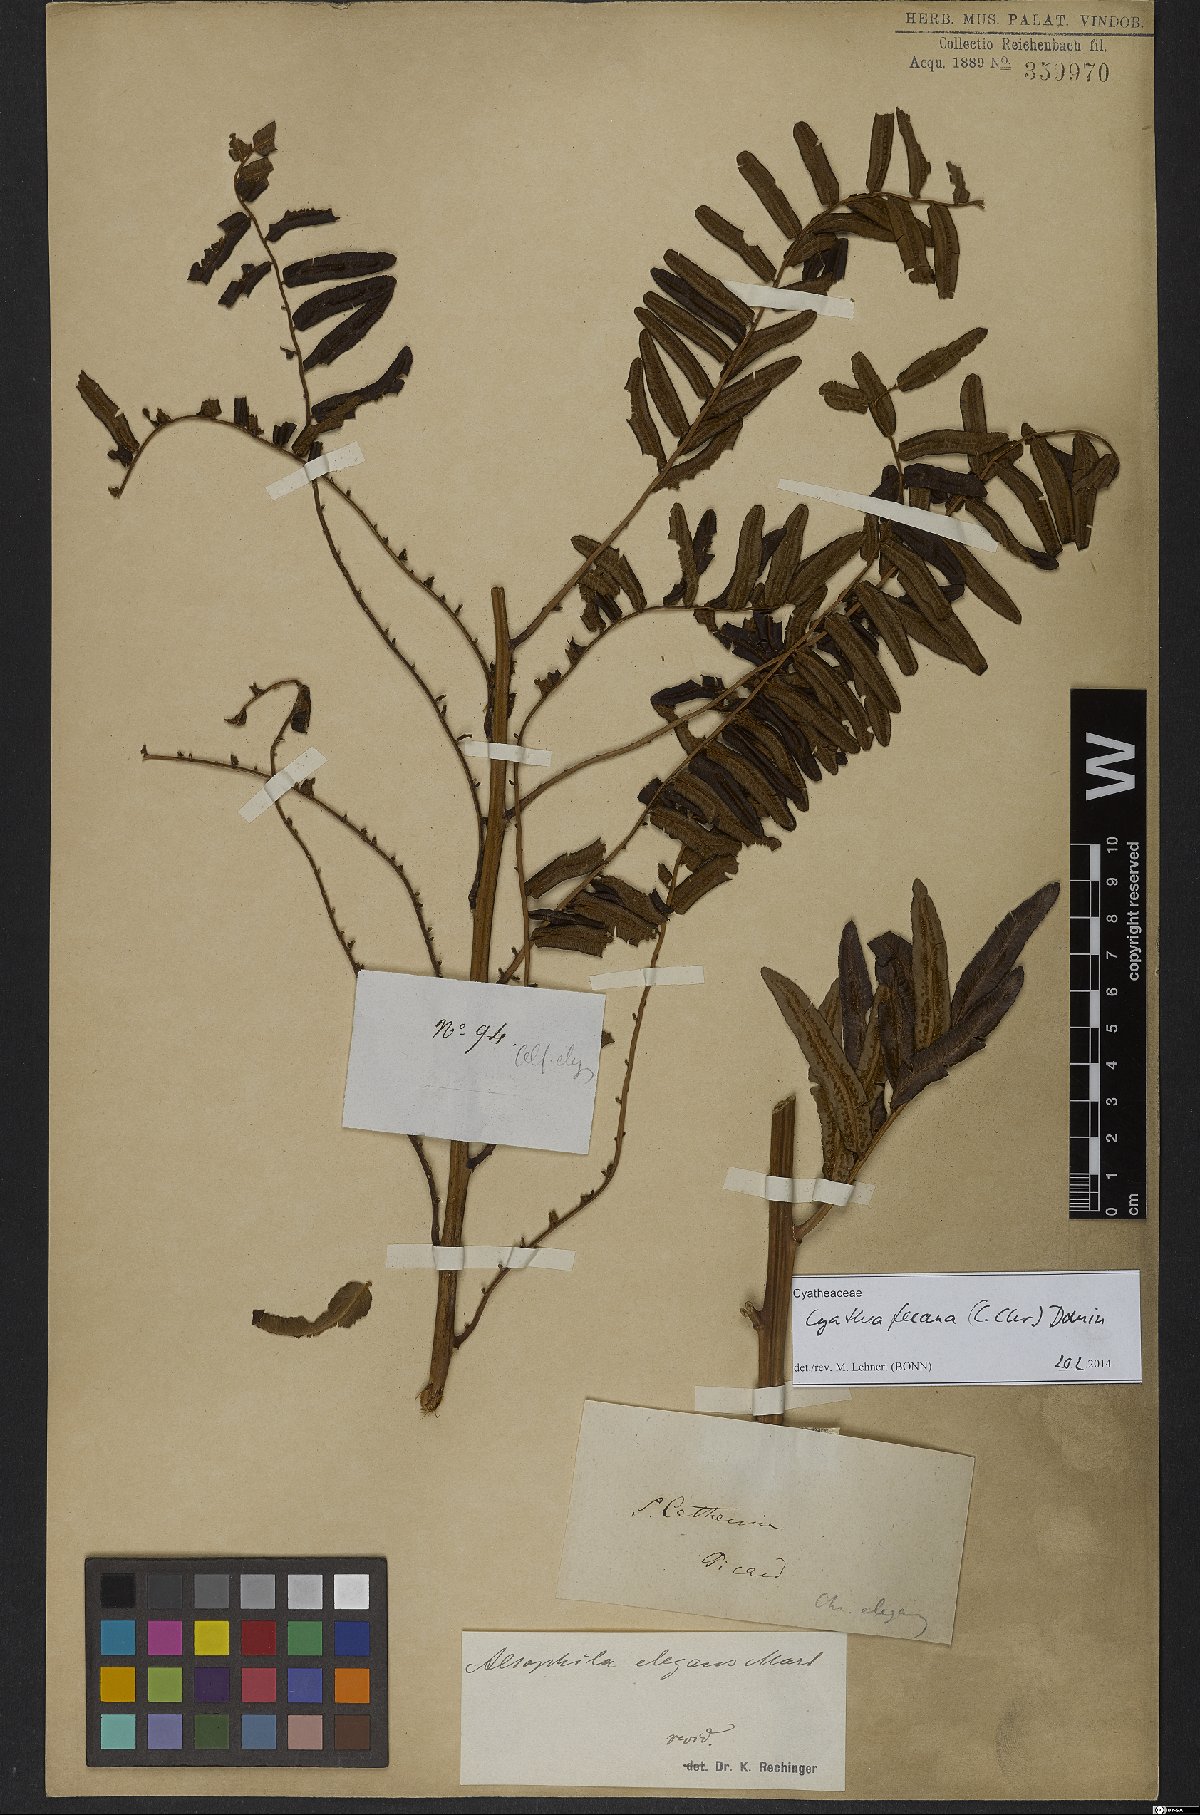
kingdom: Plantae
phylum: Tracheophyta
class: Polypodiopsida
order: Cyatheales
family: Cyatheaceae
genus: Cyathea
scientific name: Cyathea feeana
